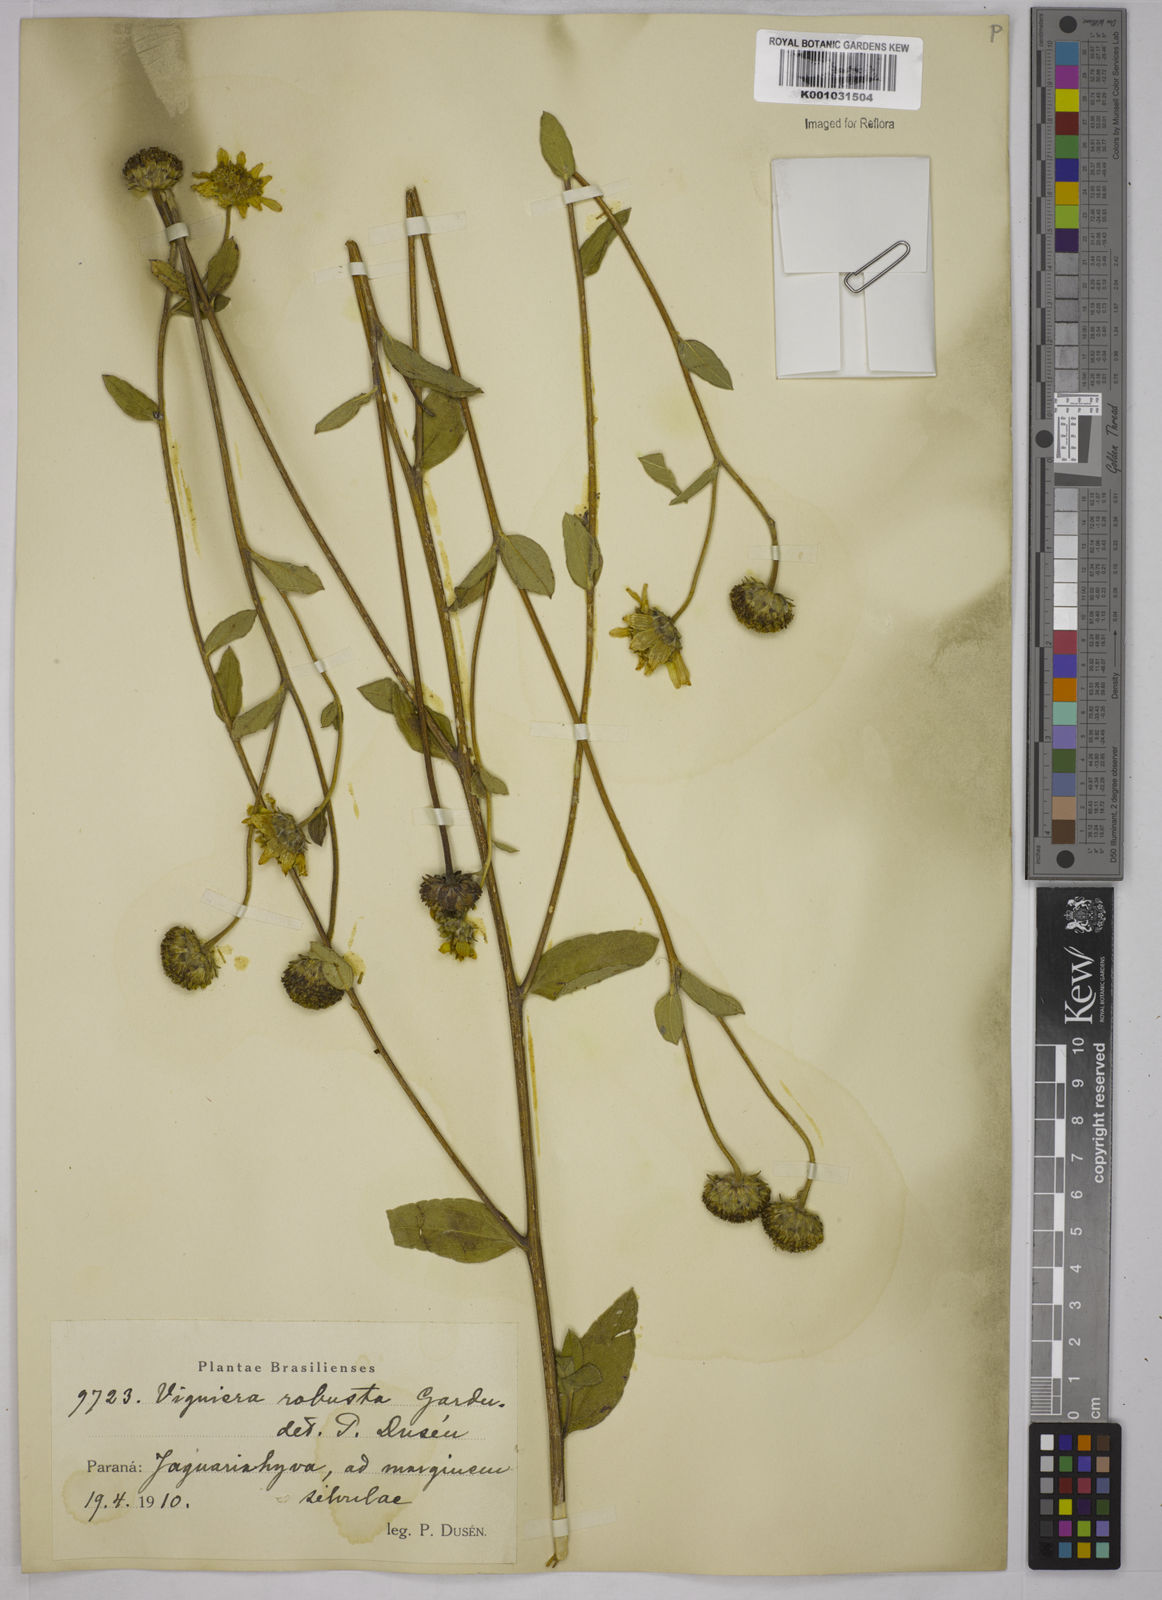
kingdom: Plantae
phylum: Tracheophyta
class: Magnoliopsida
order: Asterales
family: Asteraceae
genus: Aldama
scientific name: Aldama robusta
